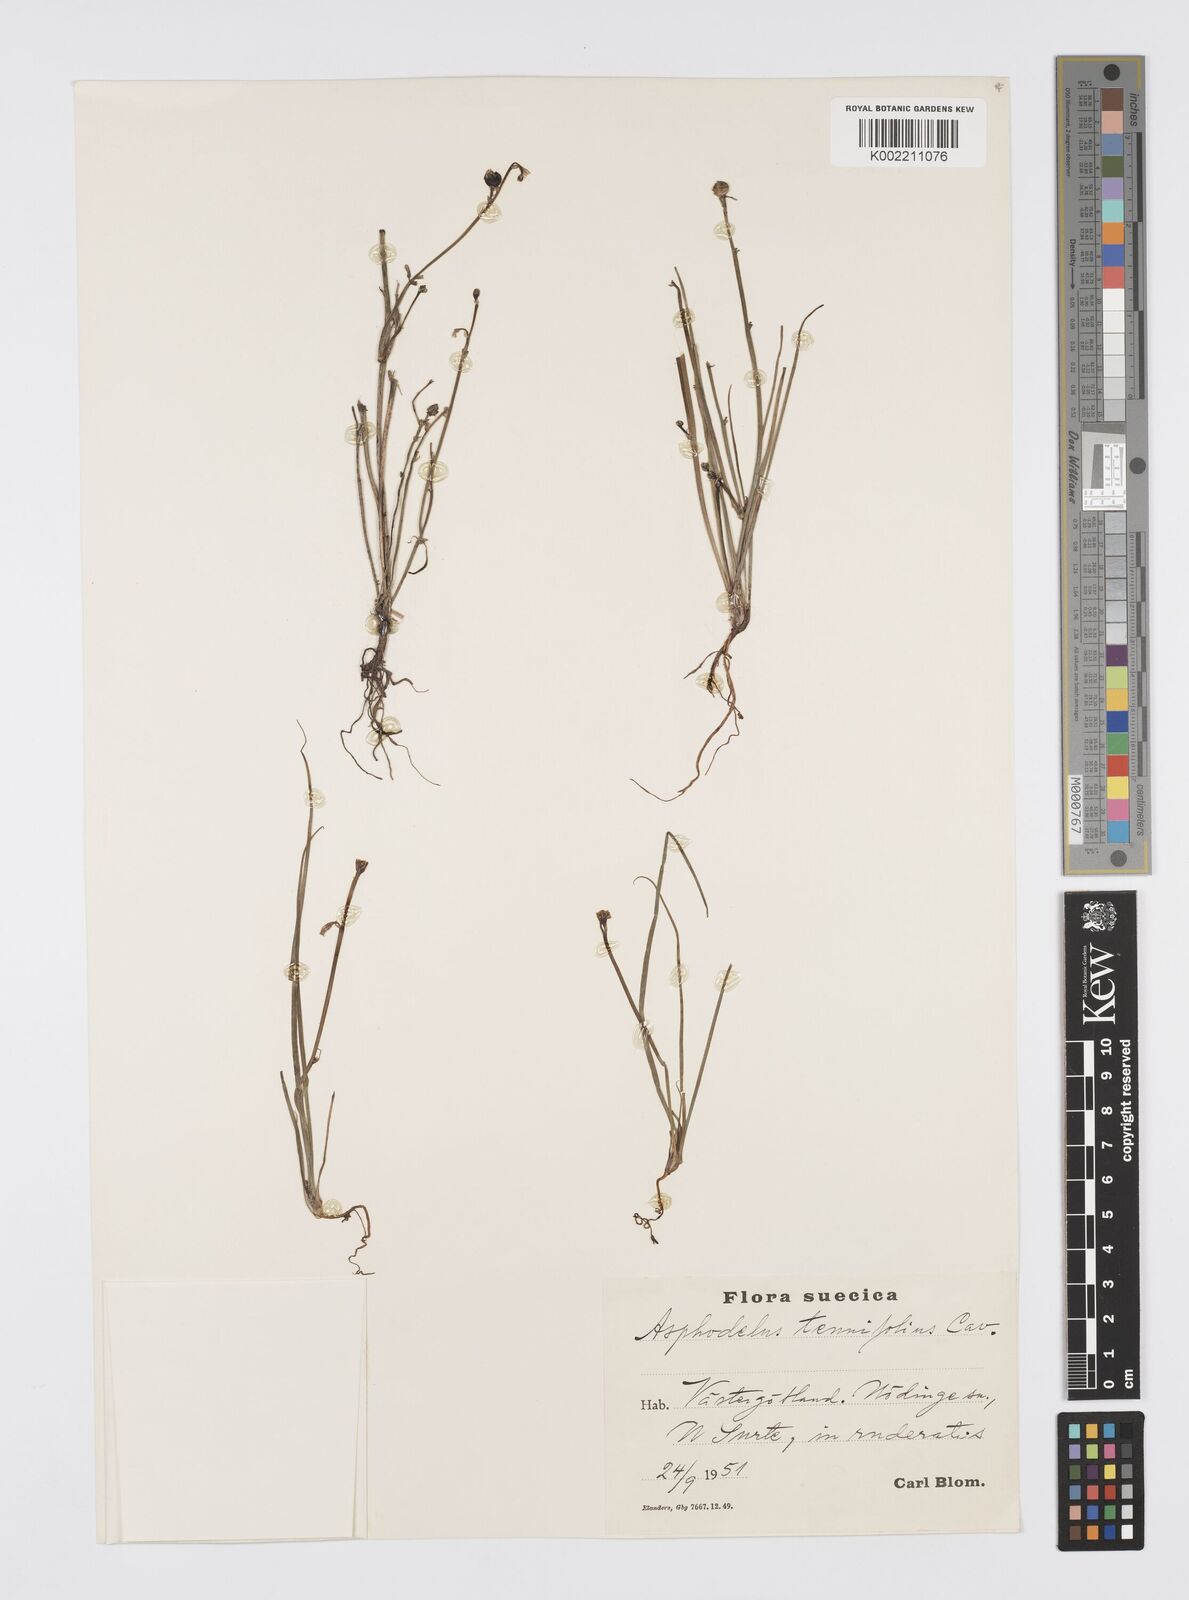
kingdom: Plantae
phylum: Tracheophyta
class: Liliopsida
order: Asparagales
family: Asphodelaceae
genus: Asphodelus
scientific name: Asphodelus tenuifolius
